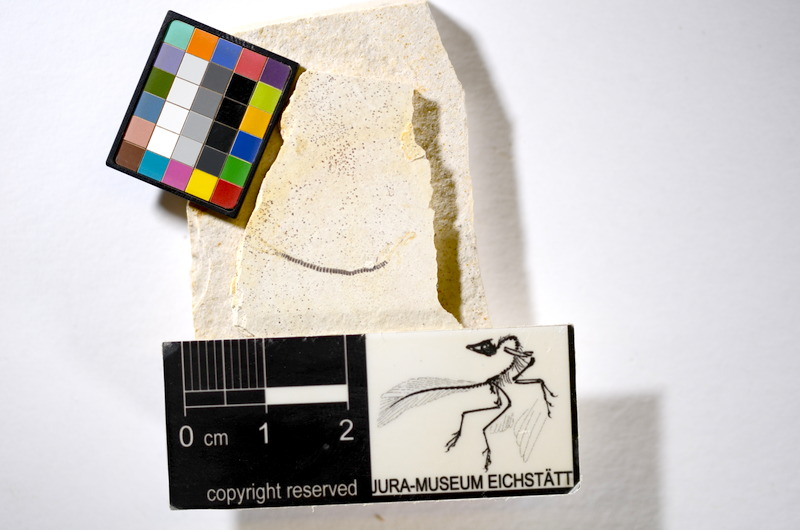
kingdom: Animalia
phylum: Chordata
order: Salmoniformes
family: Orthogonikleithridae
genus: Orthogonikleithrus
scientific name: Orthogonikleithrus hoelli
